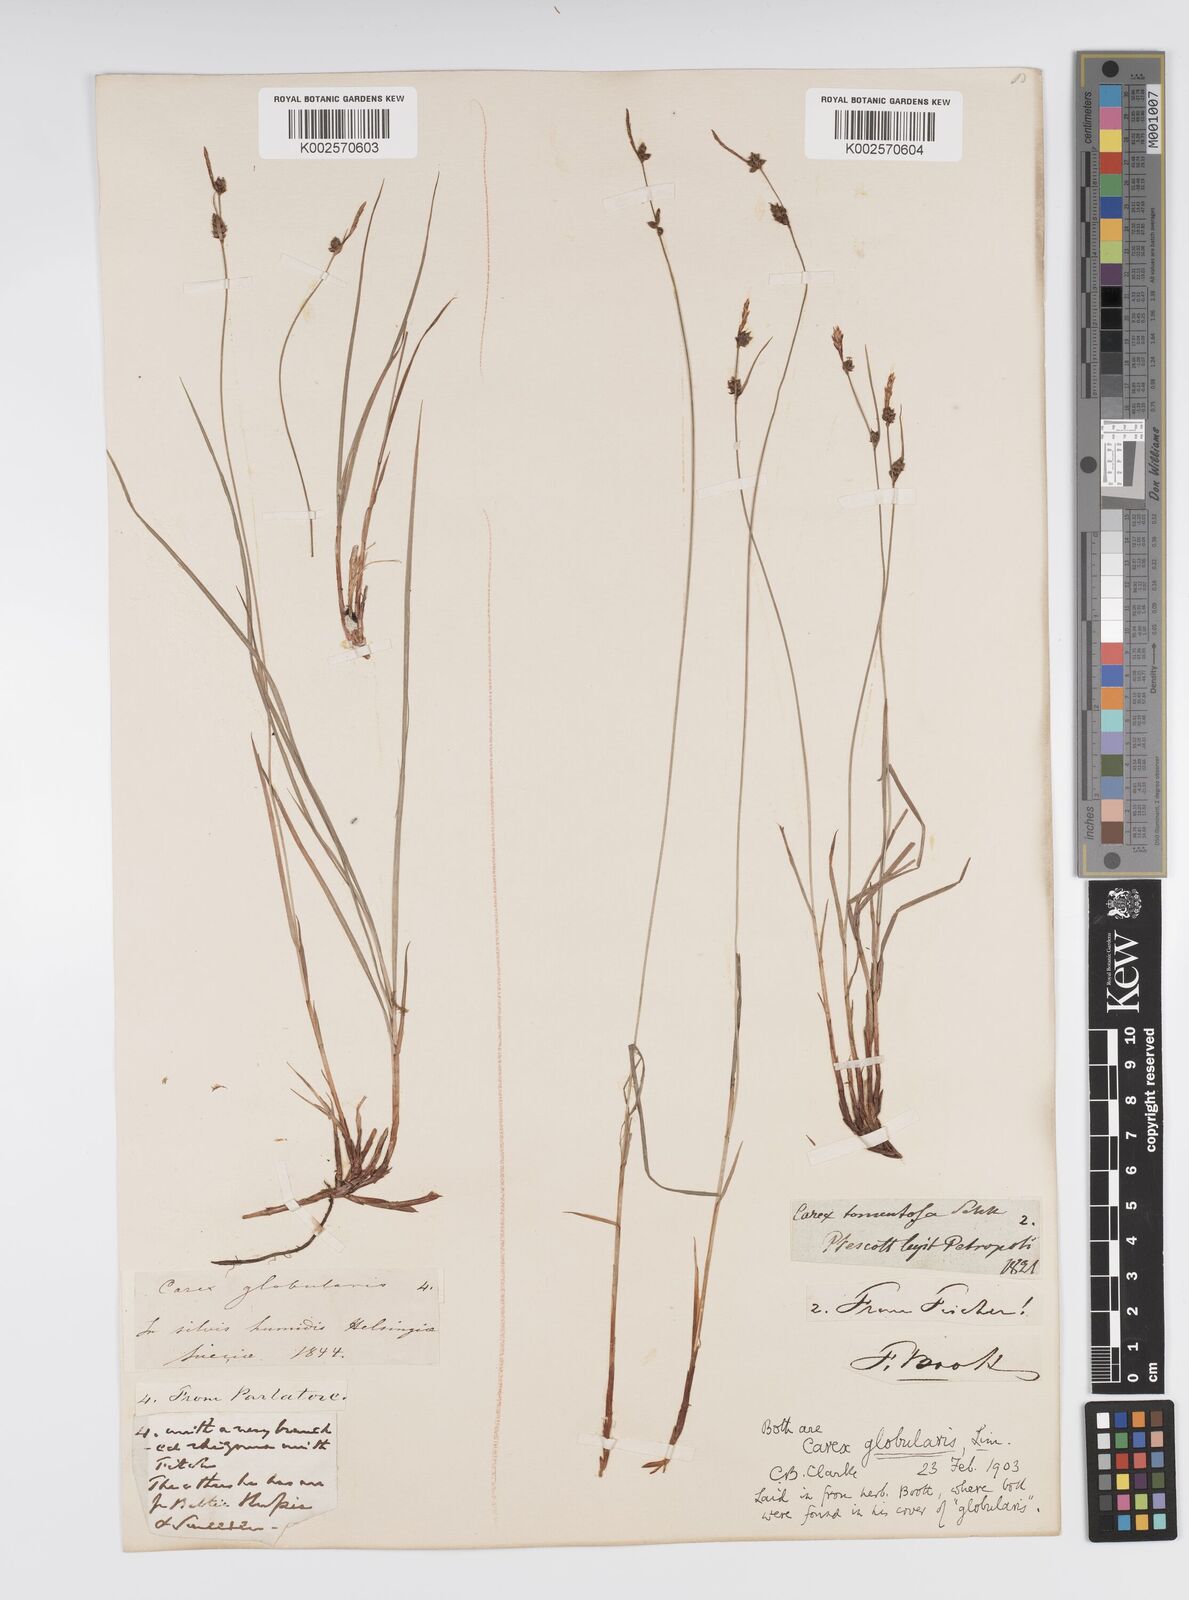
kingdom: Plantae
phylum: Tracheophyta
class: Liliopsida
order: Poales
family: Cyperaceae
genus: Carex
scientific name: Carex globularis
